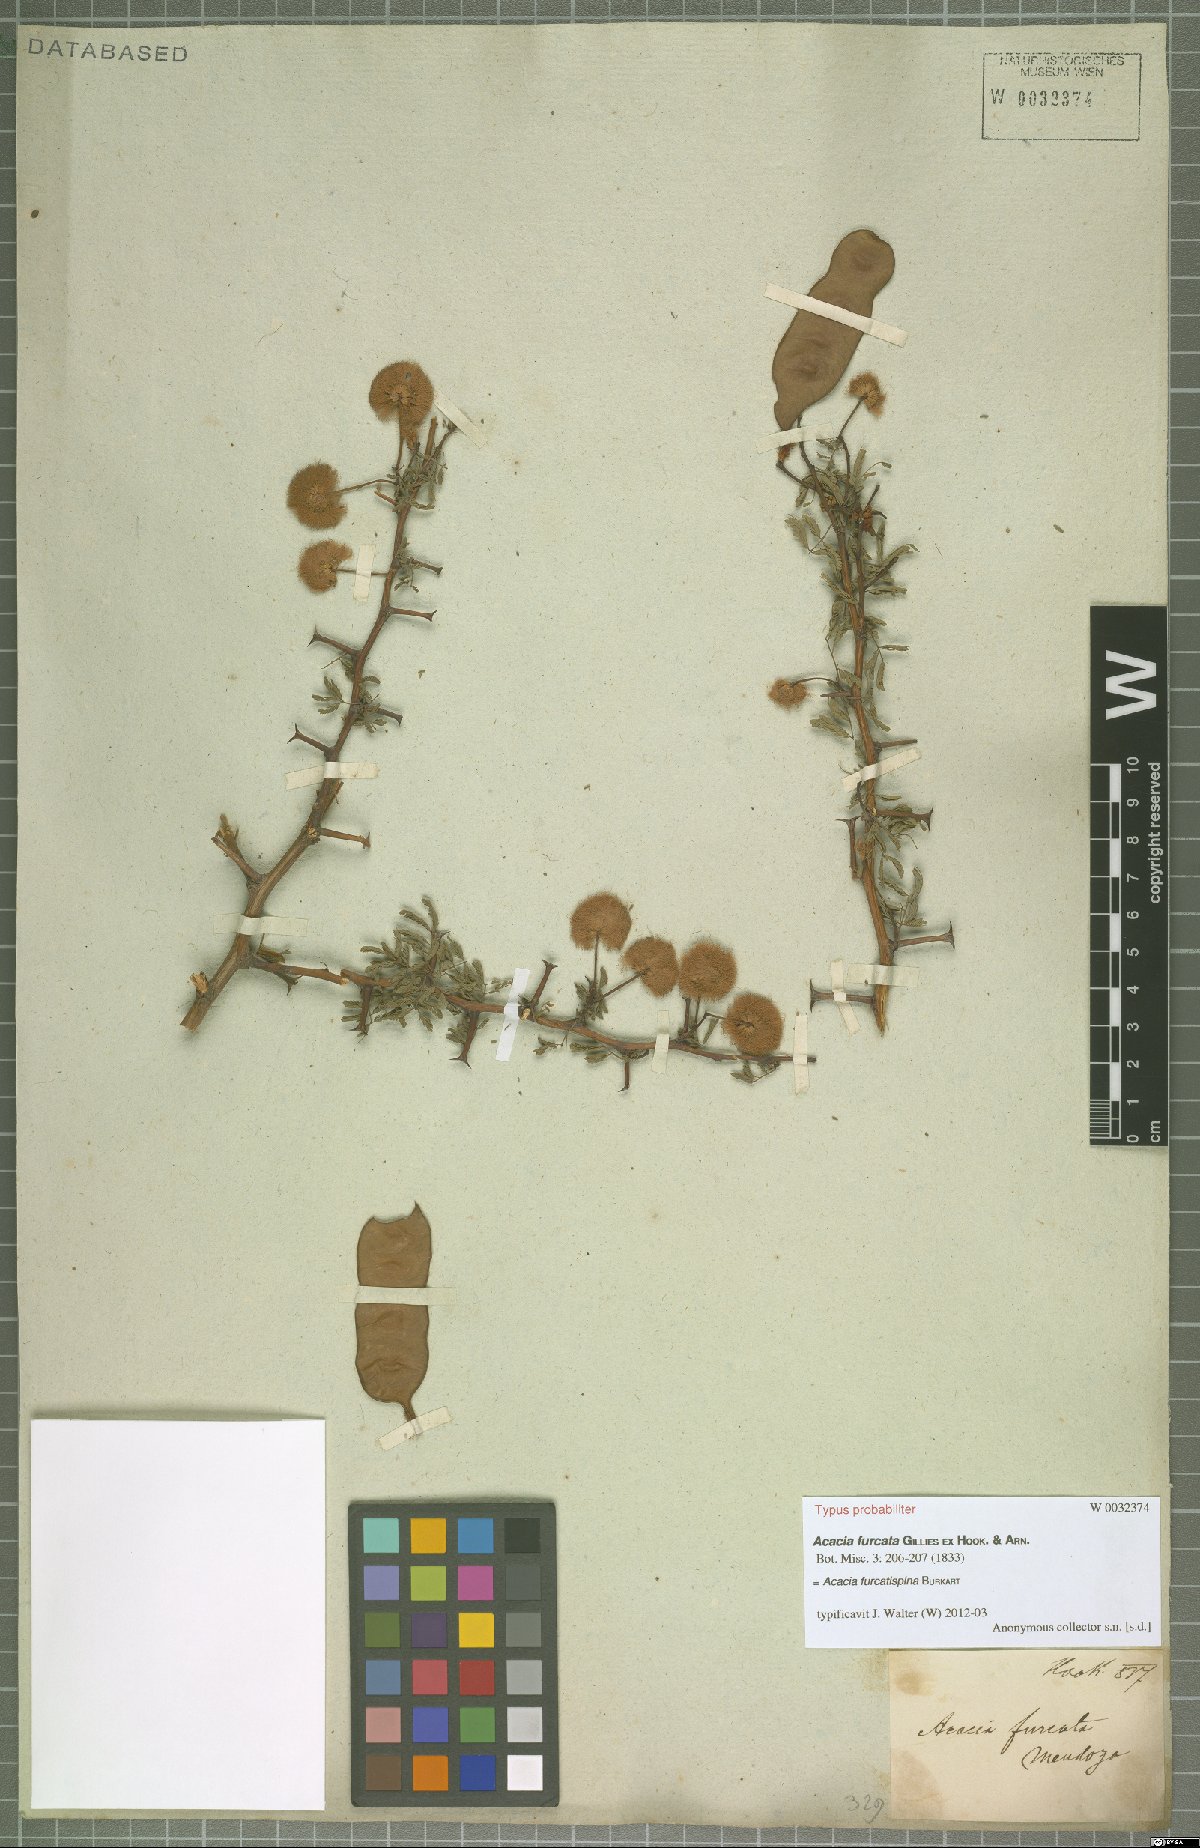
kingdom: Plantae
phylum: Tracheophyta
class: Magnoliopsida
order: Fabales
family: Fabaceae
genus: Senegalia
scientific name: Senegalia gilliesii
